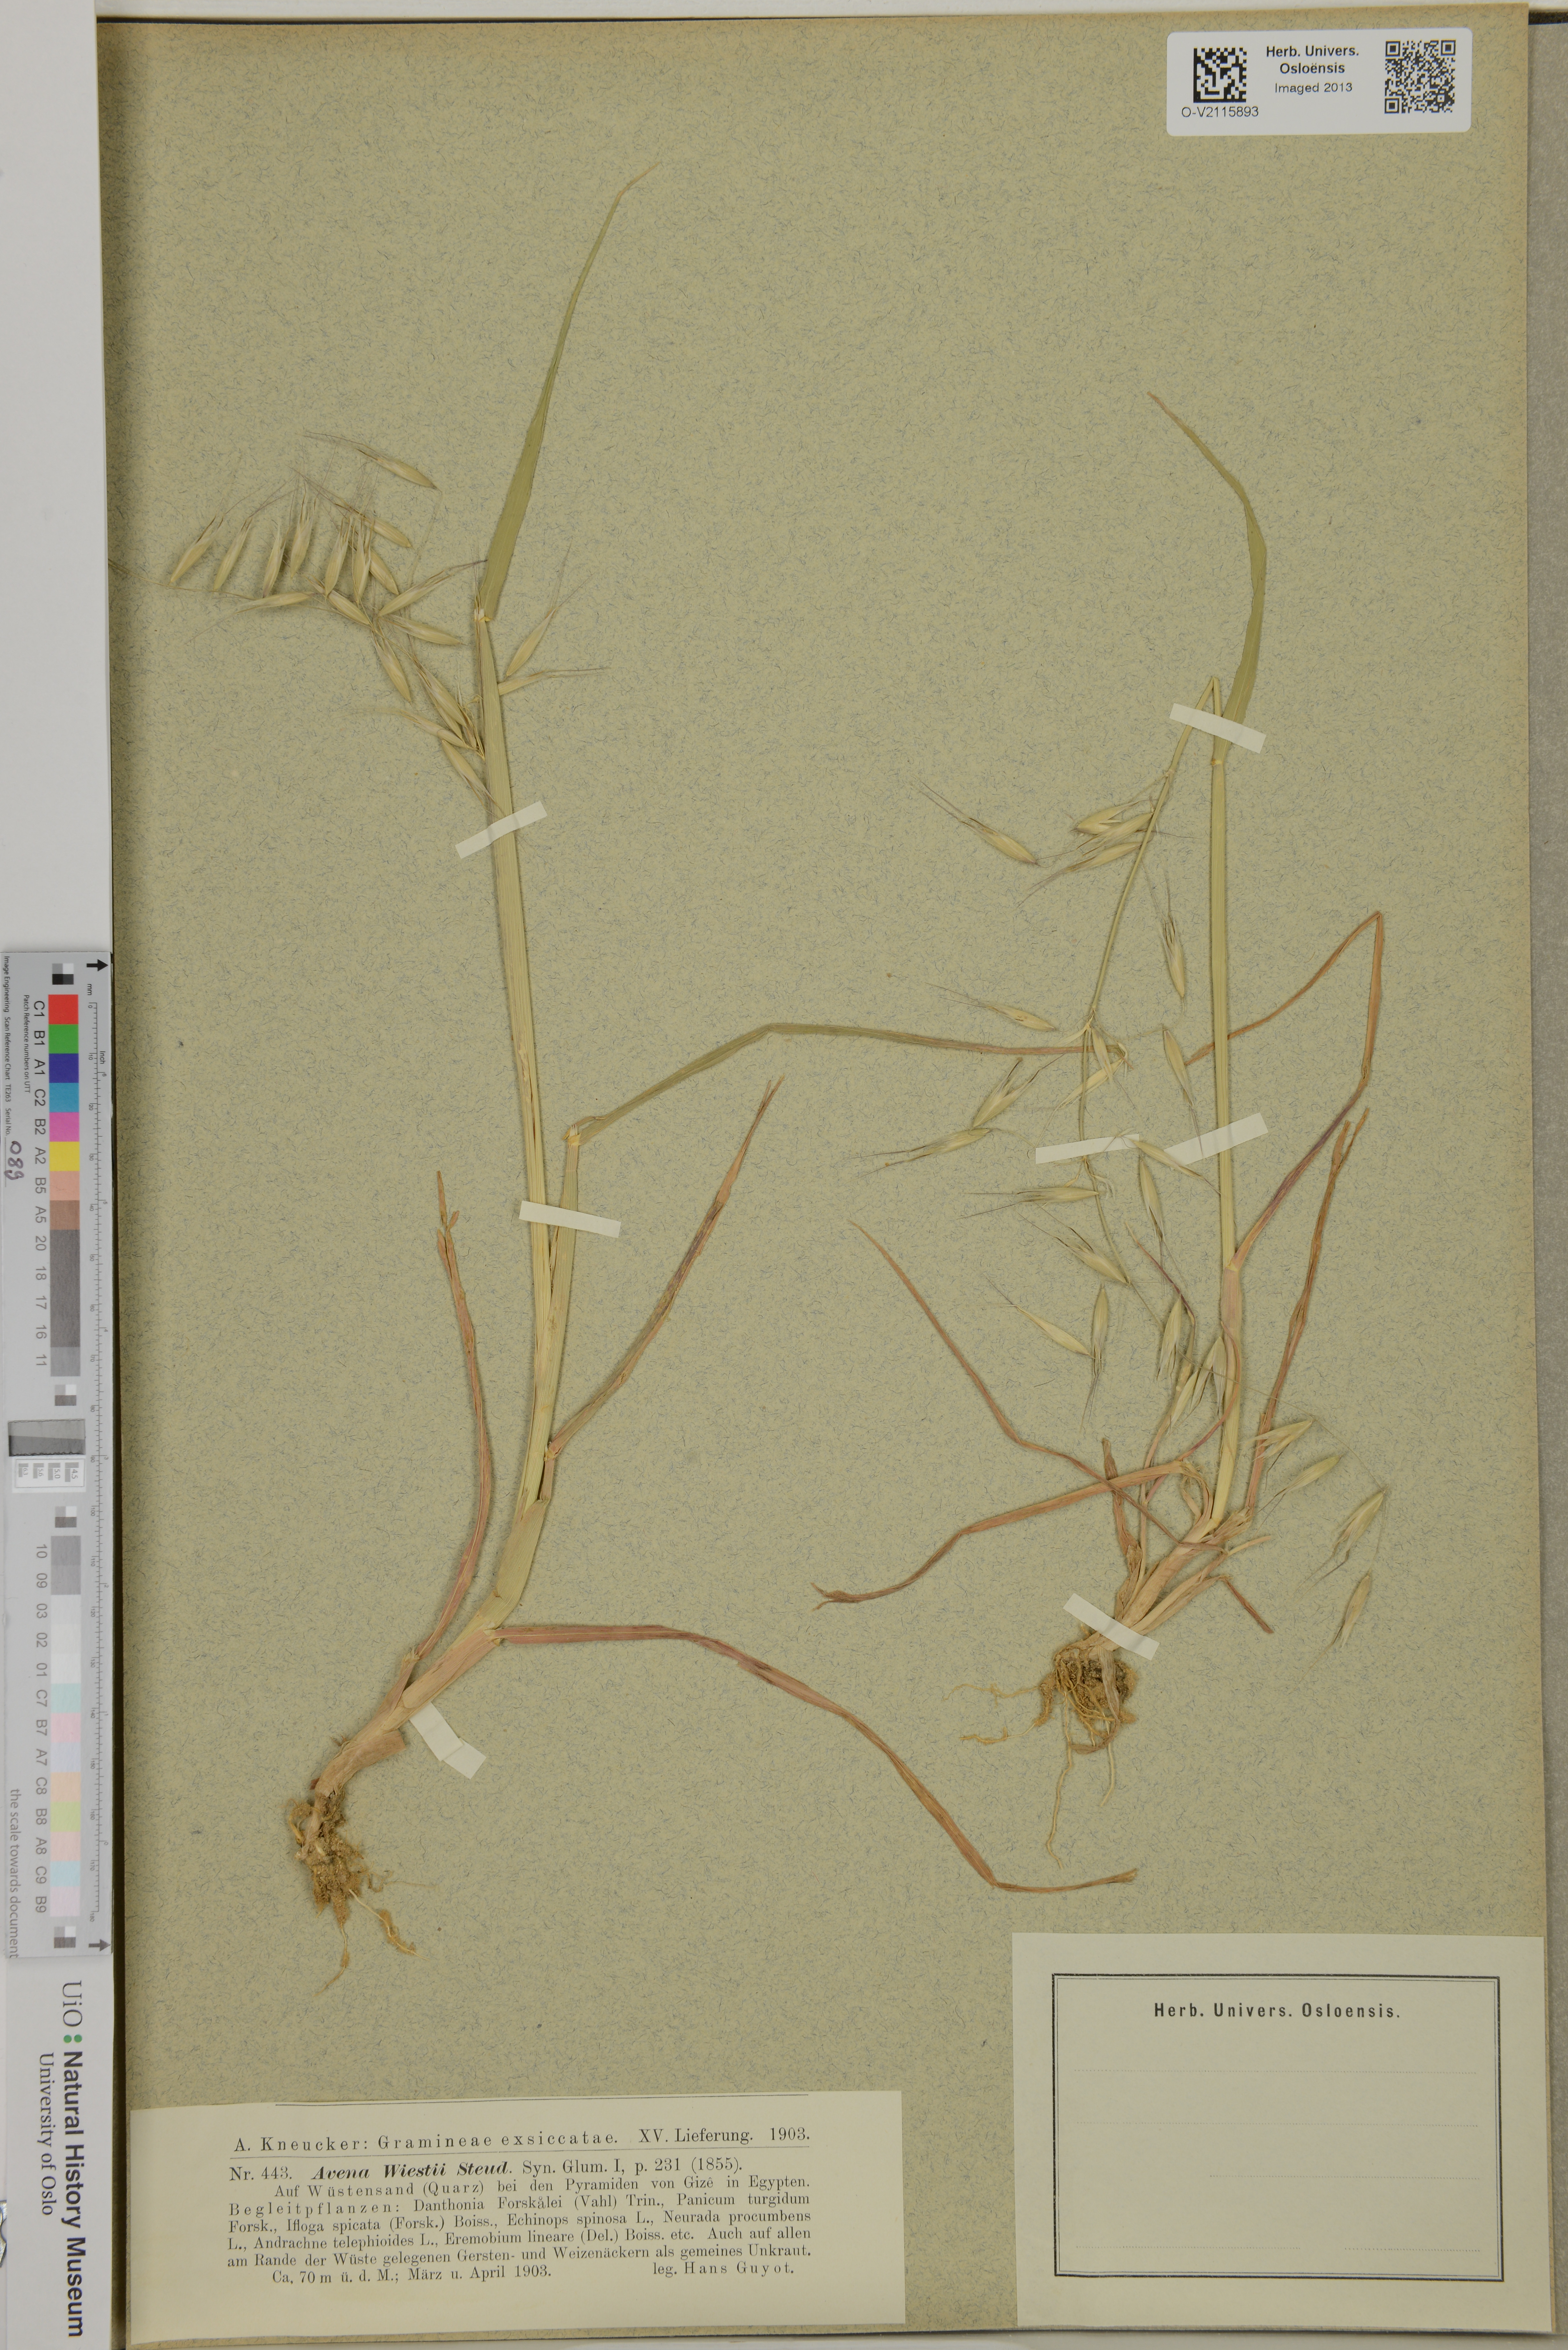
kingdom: Plantae
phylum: Tracheophyta
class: Liliopsida
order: Poales
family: Poaceae
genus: Avena
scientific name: Avena barbata
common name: Slender oat
